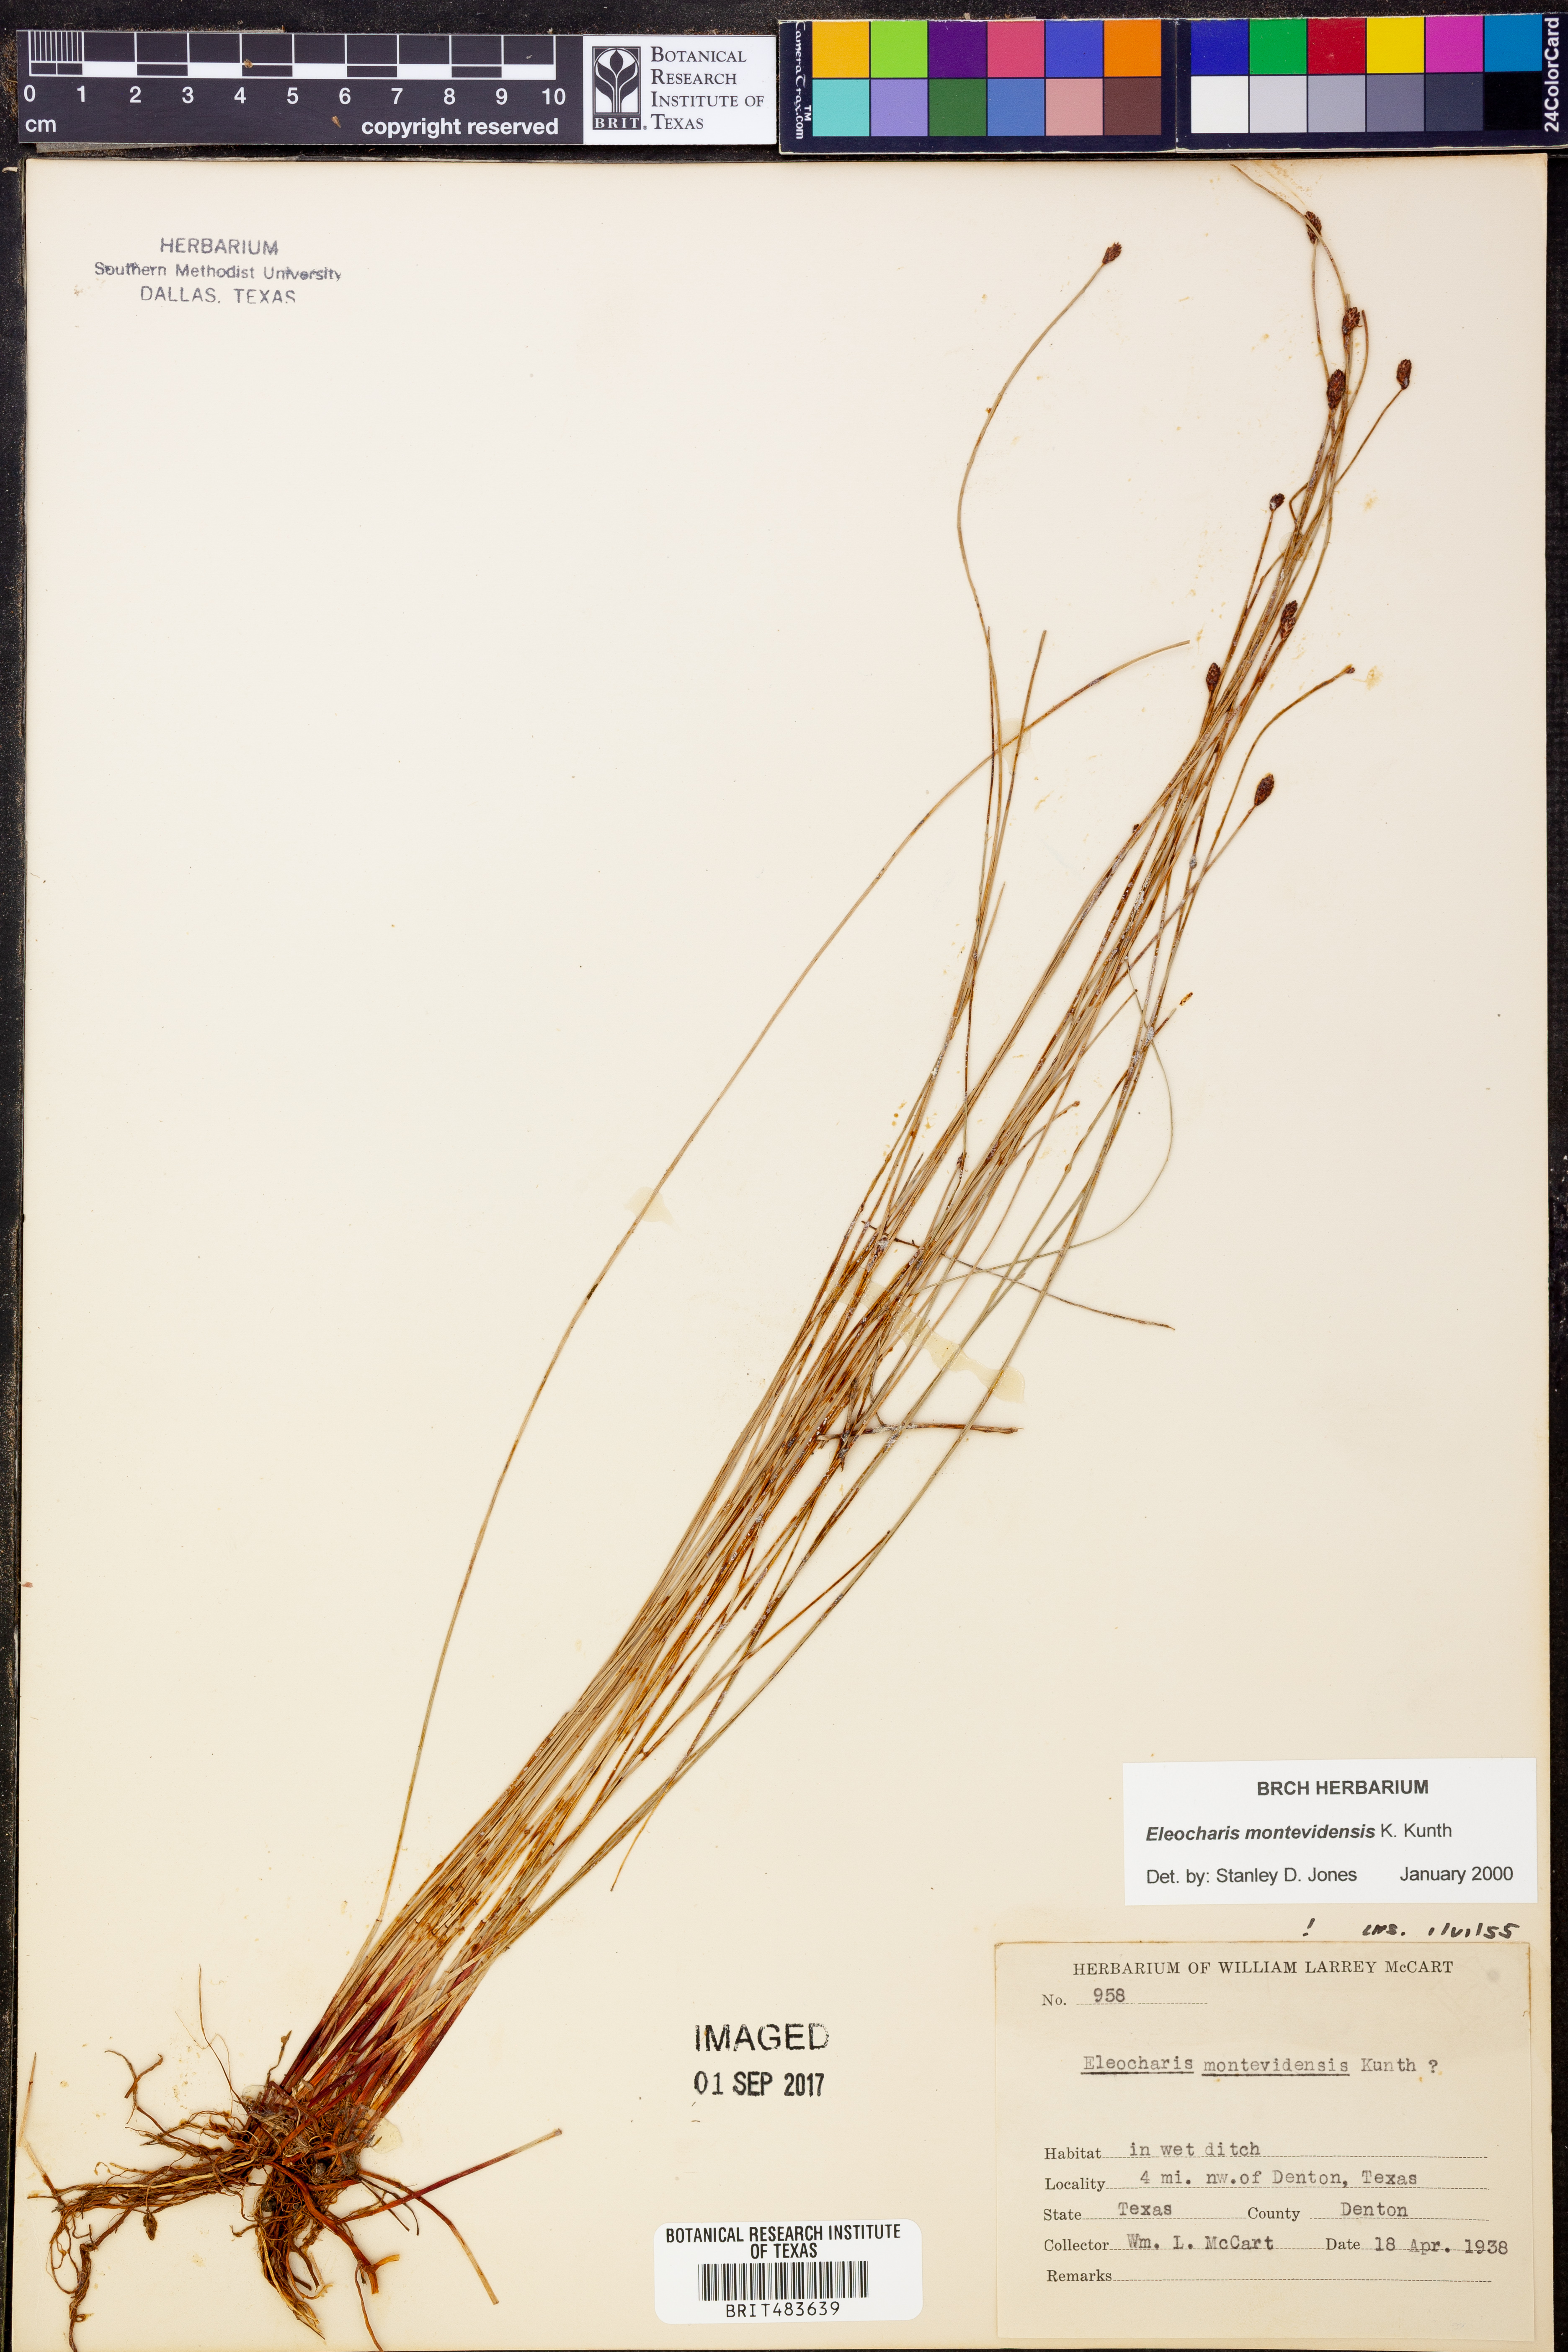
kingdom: Plantae
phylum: Tracheophyta
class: Liliopsida
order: Poales
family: Cyperaceae
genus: Eleocharis
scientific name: Eleocharis montevidensis
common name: Sand spike-rush
